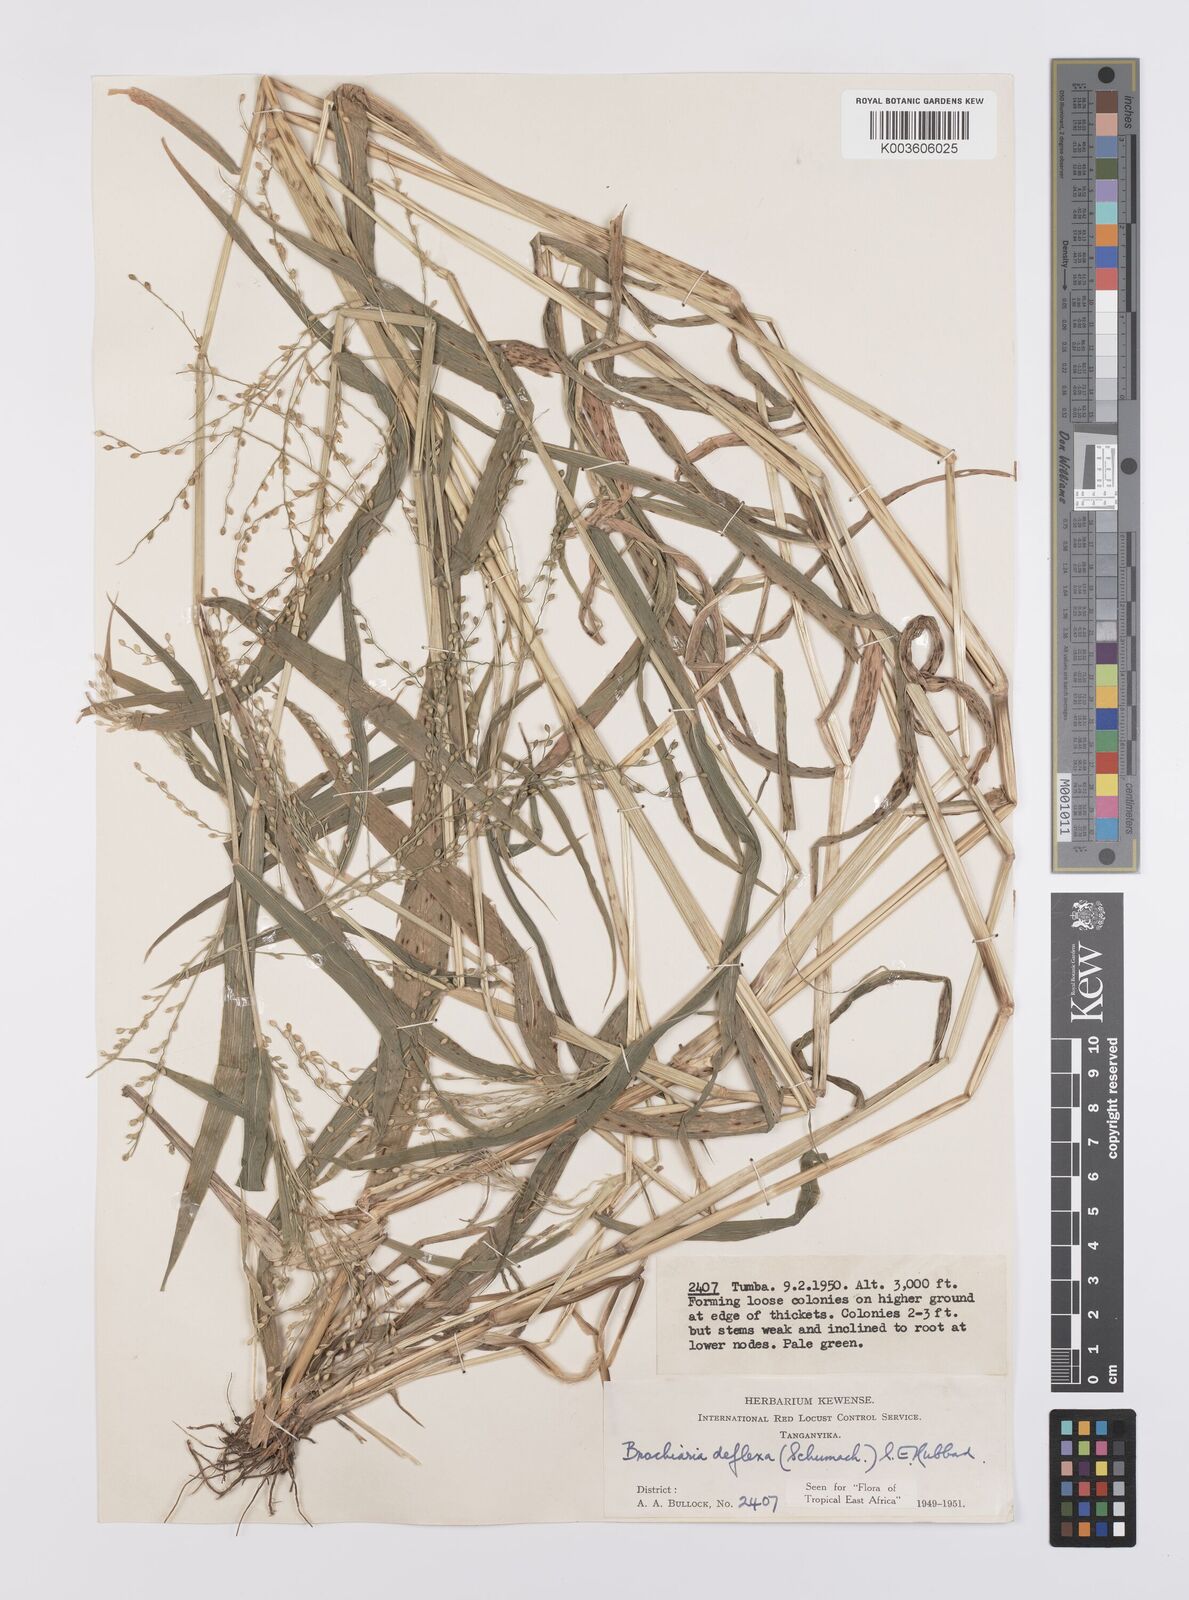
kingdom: Plantae
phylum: Tracheophyta
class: Liliopsida
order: Poales
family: Poaceae
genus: Urochloa
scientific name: Urochloa deflexa
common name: Guinea millet
